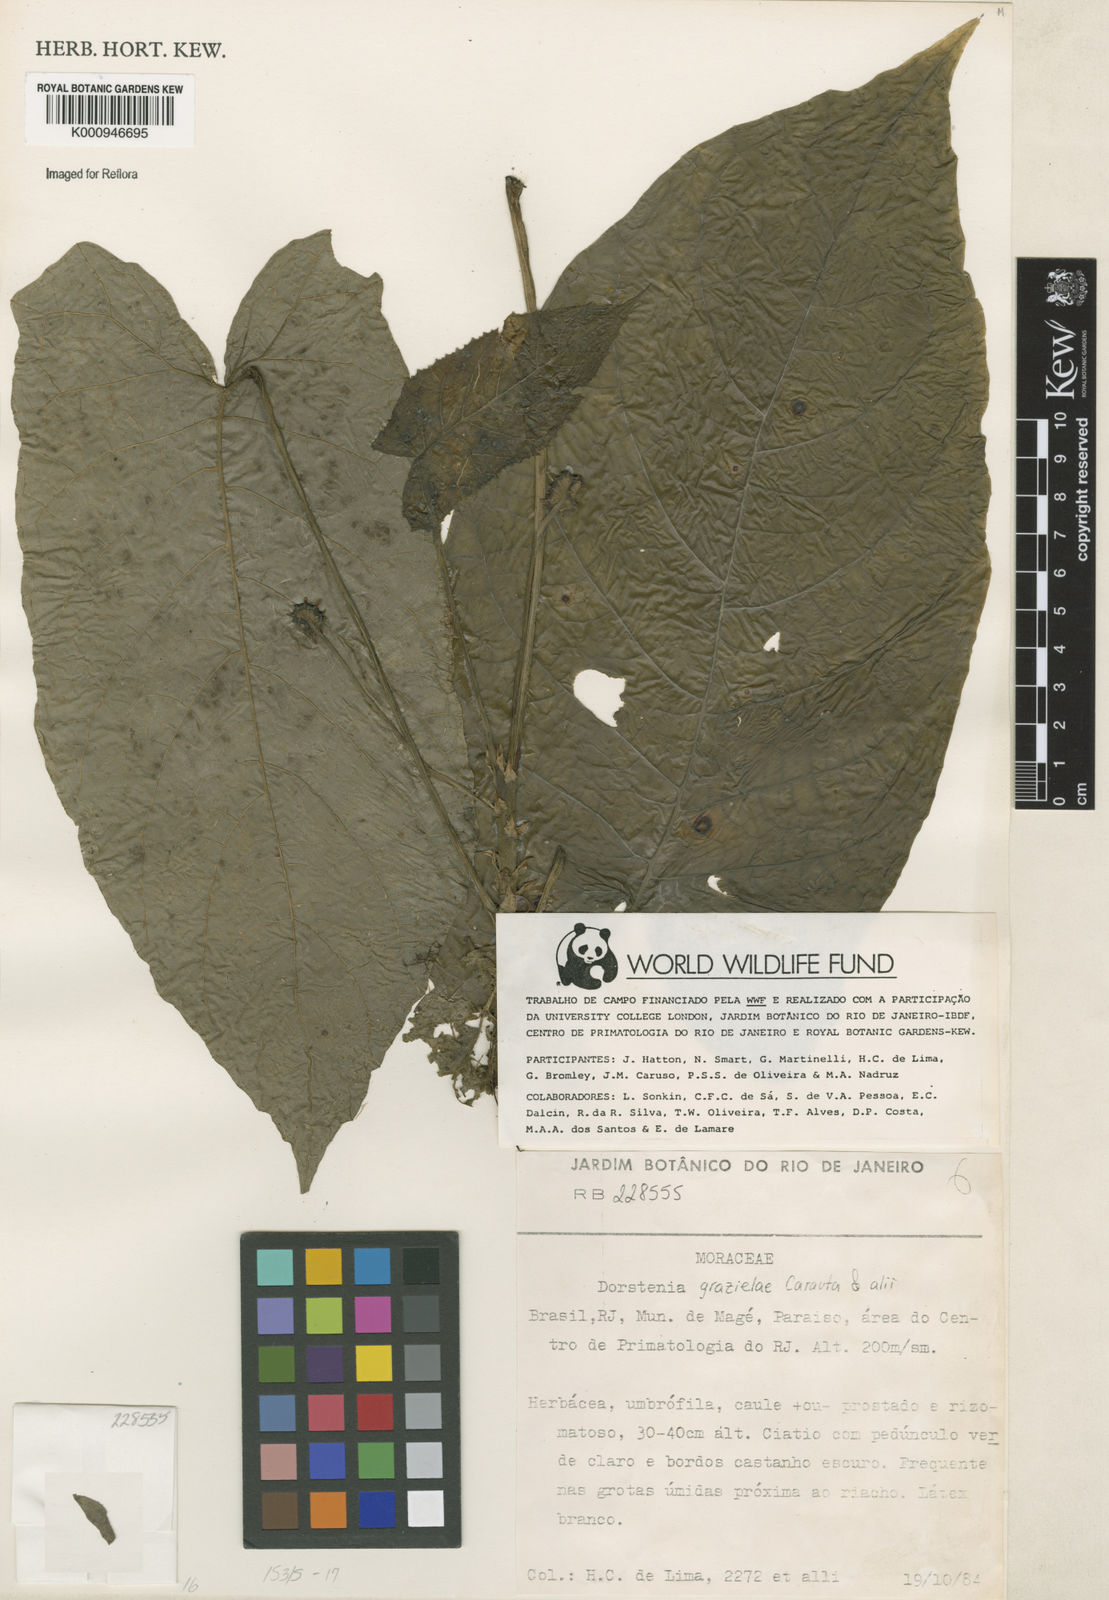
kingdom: Plantae
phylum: Tracheophyta
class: Magnoliopsida
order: Rosales
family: Moraceae
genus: Dorstenia
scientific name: Dorstenia grazielae
